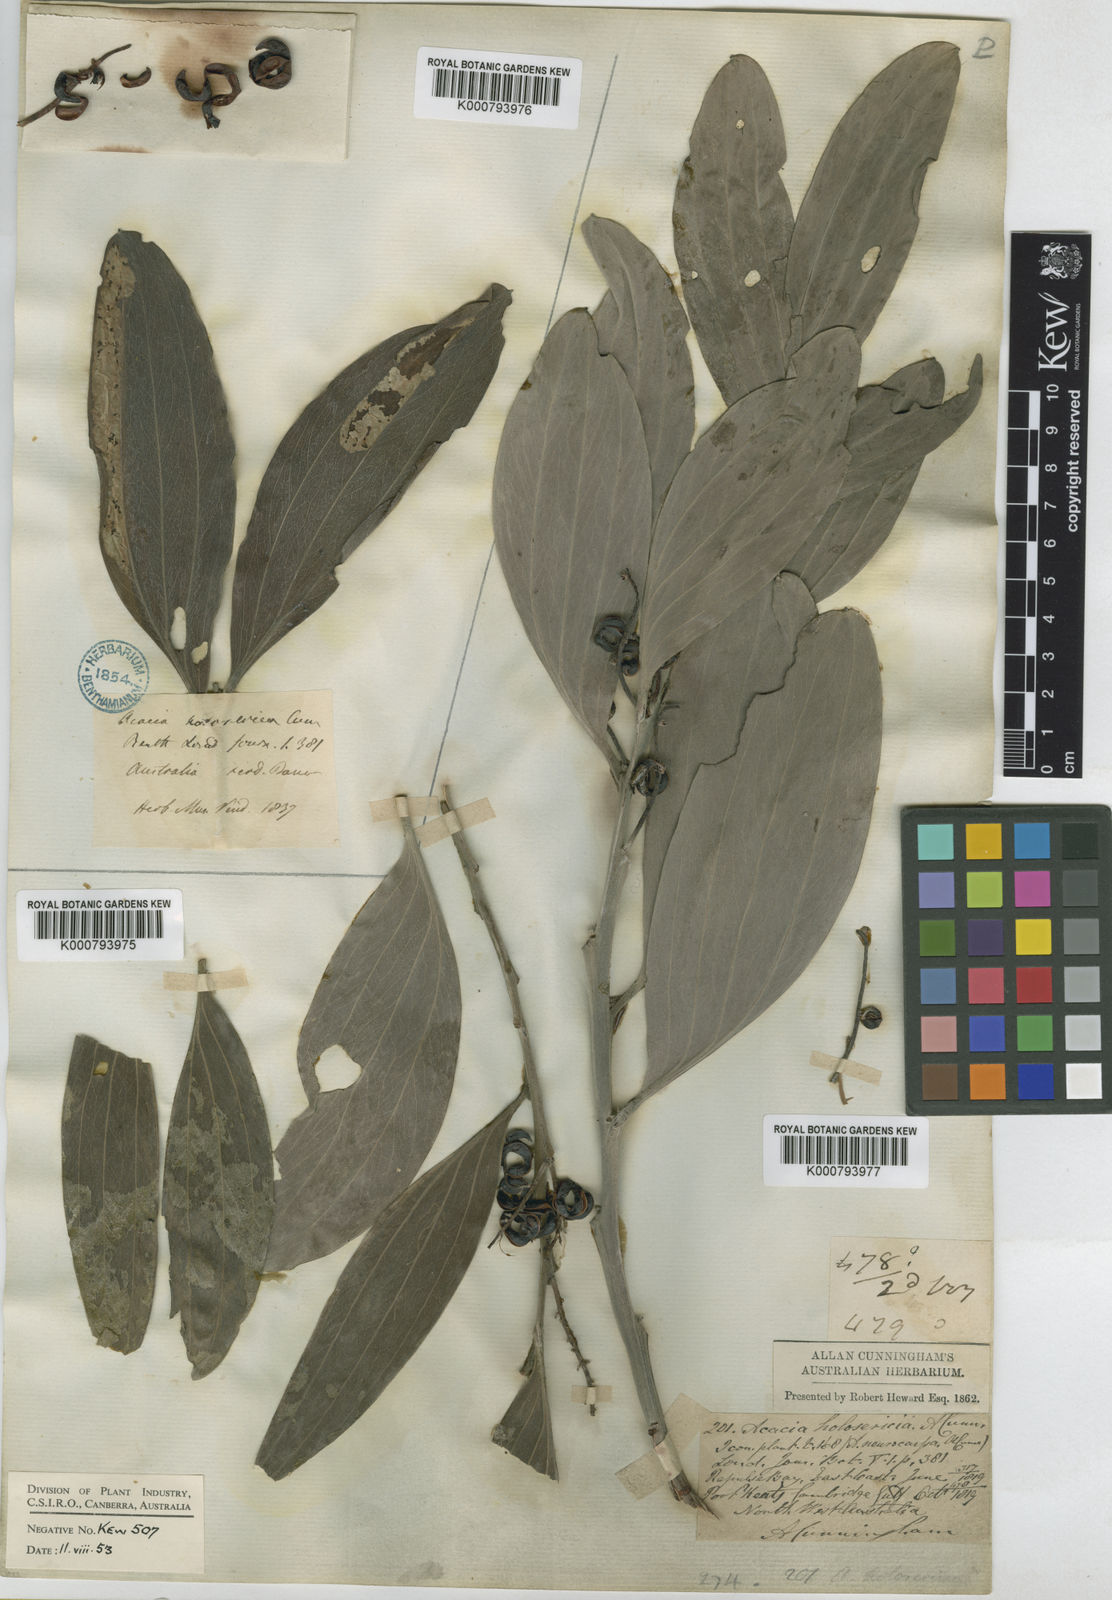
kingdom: Plantae
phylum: Tracheophyta
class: Magnoliopsida
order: Fabales
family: Fabaceae
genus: Acacia
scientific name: Acacia holosericea
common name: Candelabra wattle
